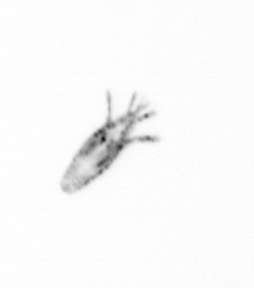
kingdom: Animalia
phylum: Arthropoda
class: Copepoda
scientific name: Copepoda
